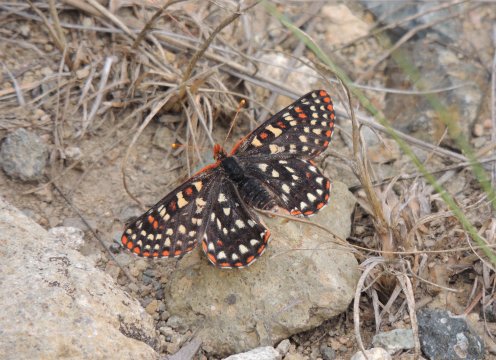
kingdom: Animalia
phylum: Arthropoda
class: Insecta
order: Lepidoptera
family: Nymphalidae
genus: Occidryas
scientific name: Occidryas anicia
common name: Anicia Checkerspot
